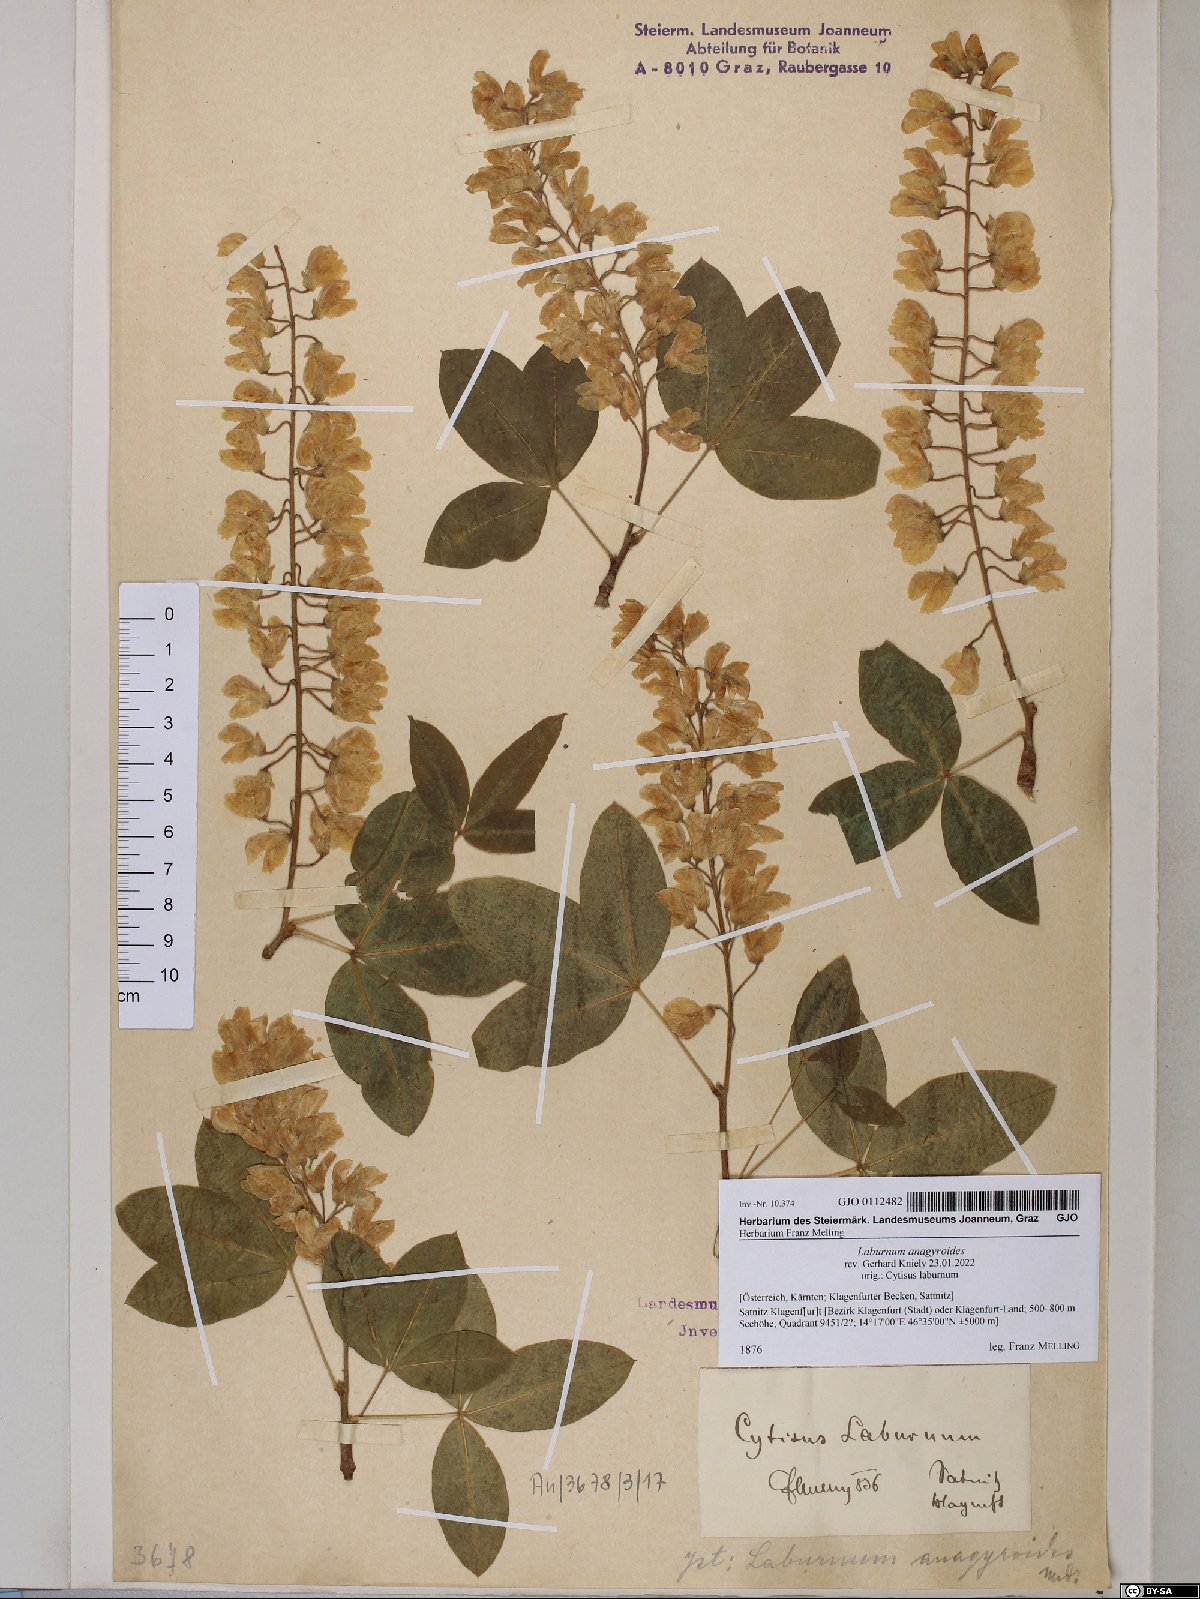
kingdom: Plantae
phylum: Tracheophyta
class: Magnoliopsida
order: Fabales
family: Fabaceae
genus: Laburnum
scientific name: Laburnum anagyroides
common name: Laburnum
